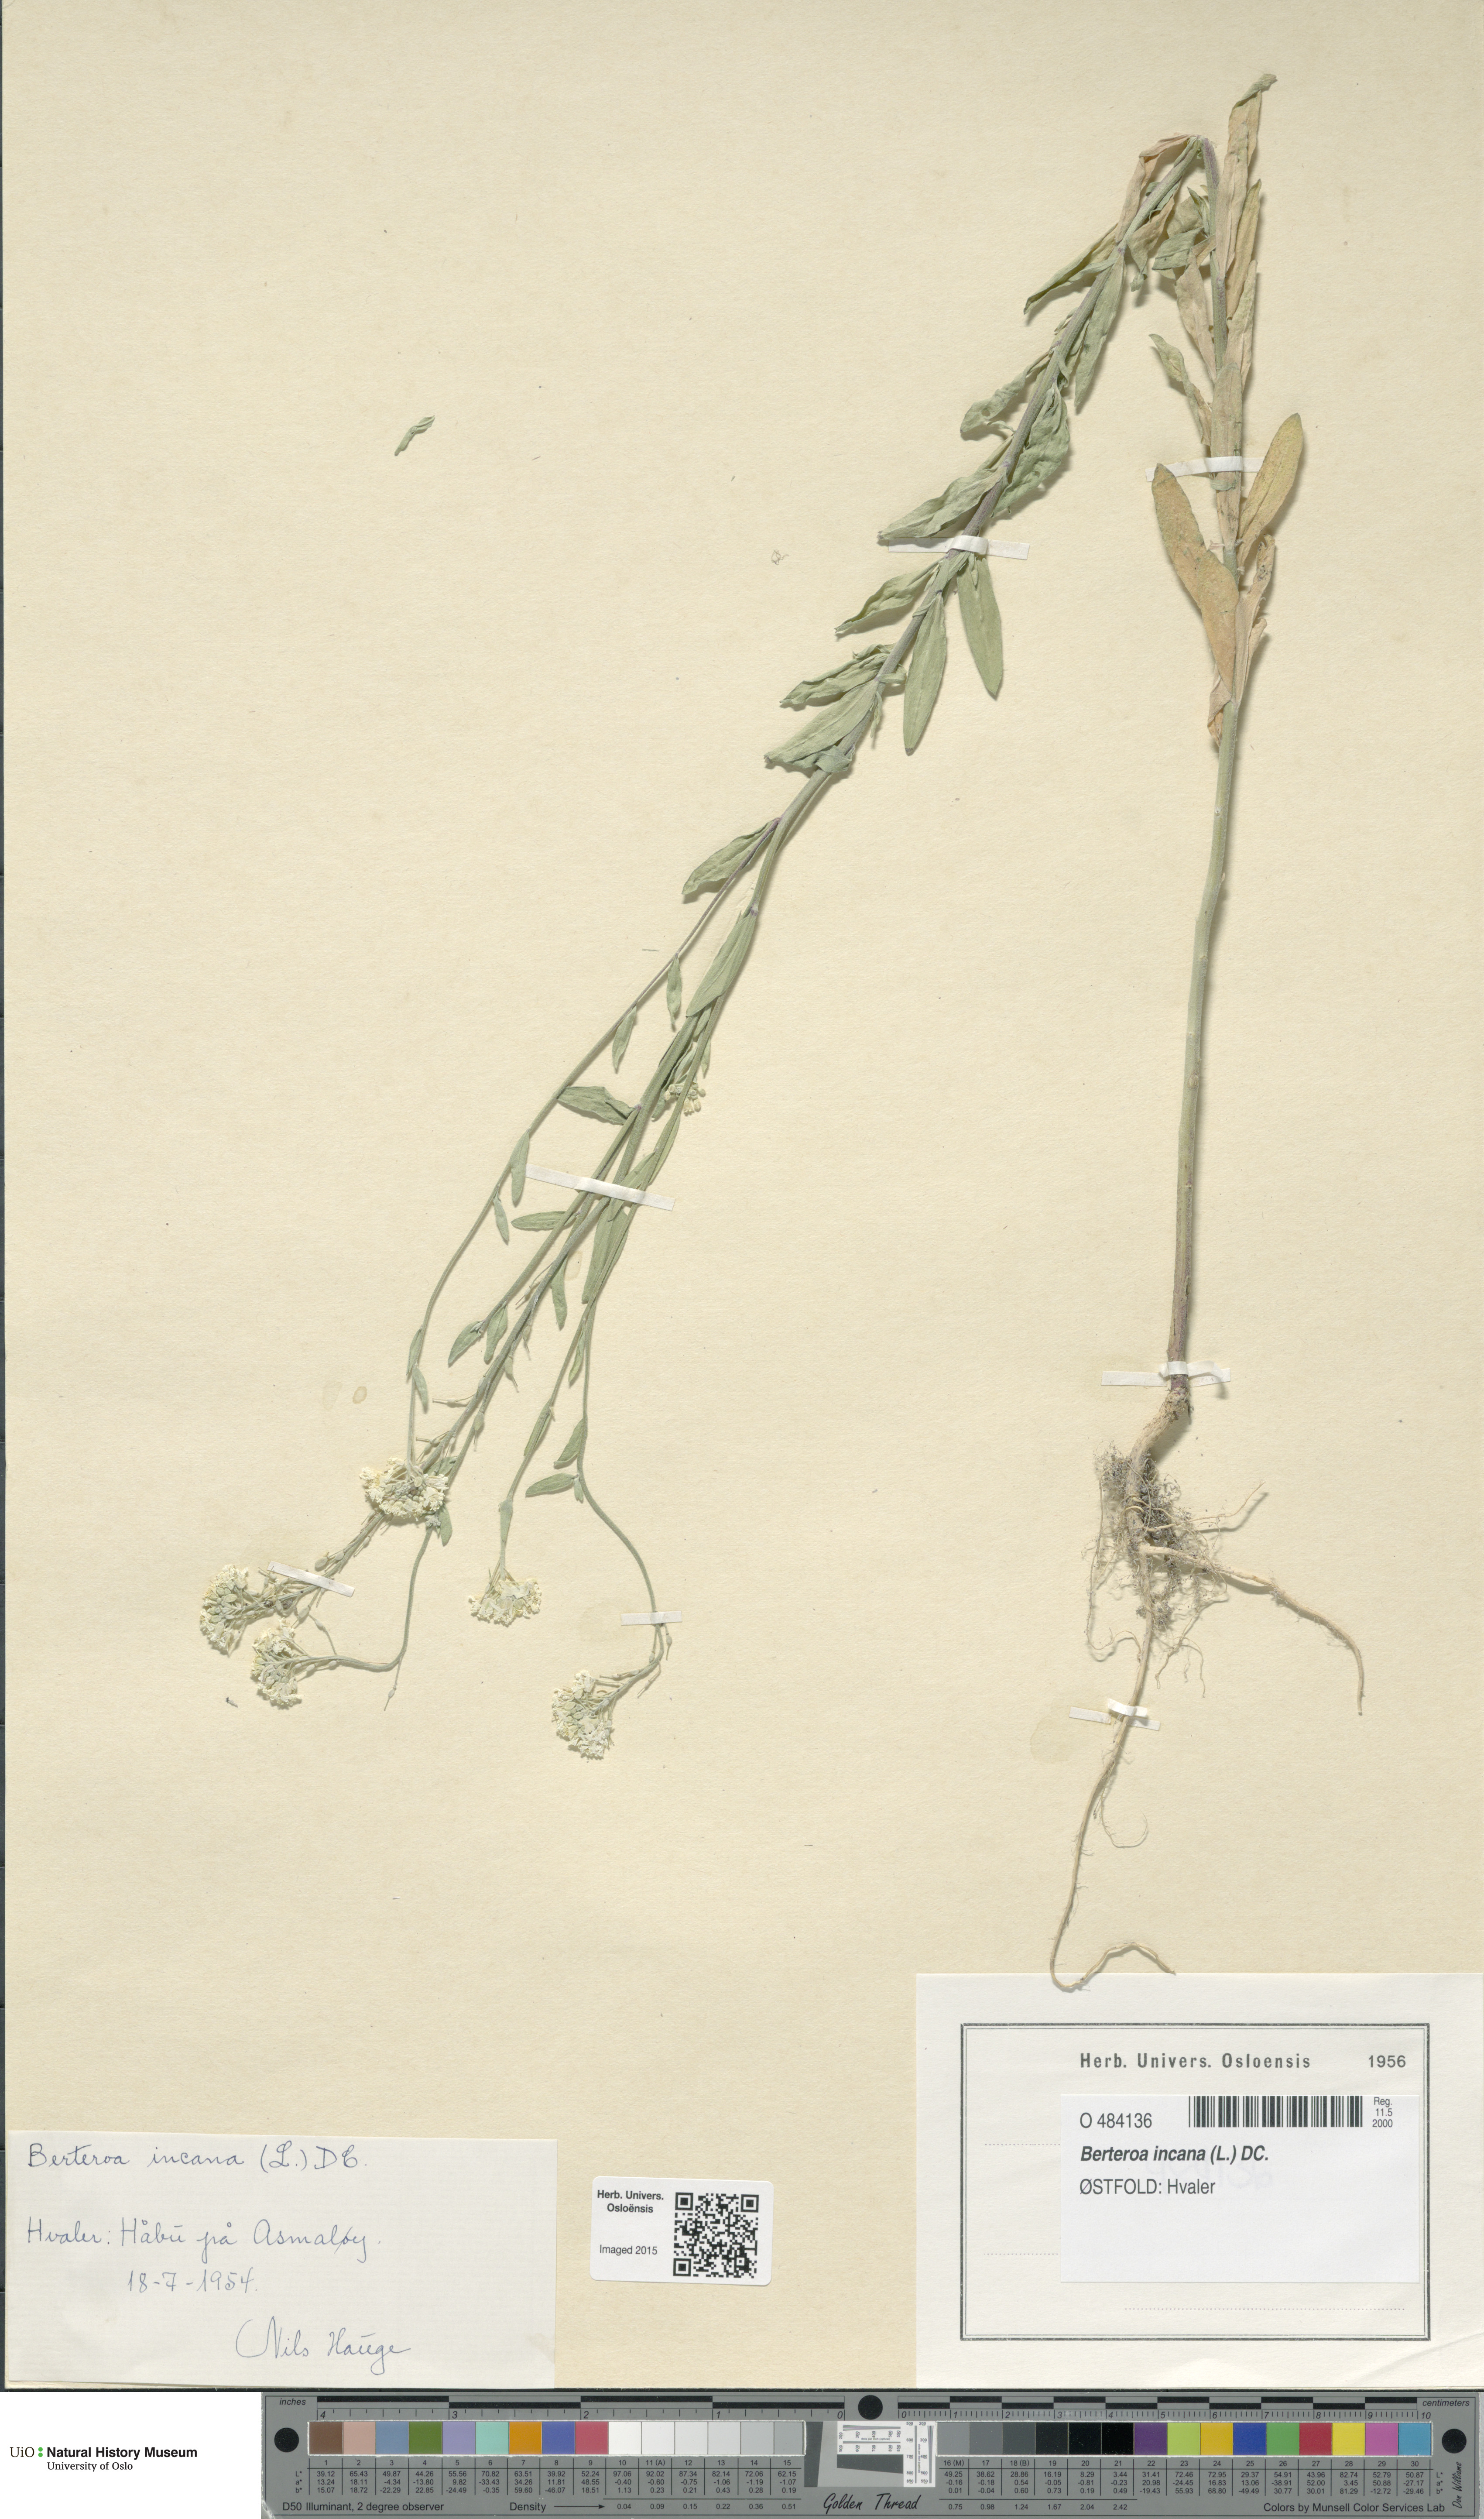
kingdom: Plantae
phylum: Tracheophyta
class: Magnoliopsida
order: Brassicales
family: Brassicaceae
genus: Berteroa
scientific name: Berteroa incana
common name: Hoary alison
